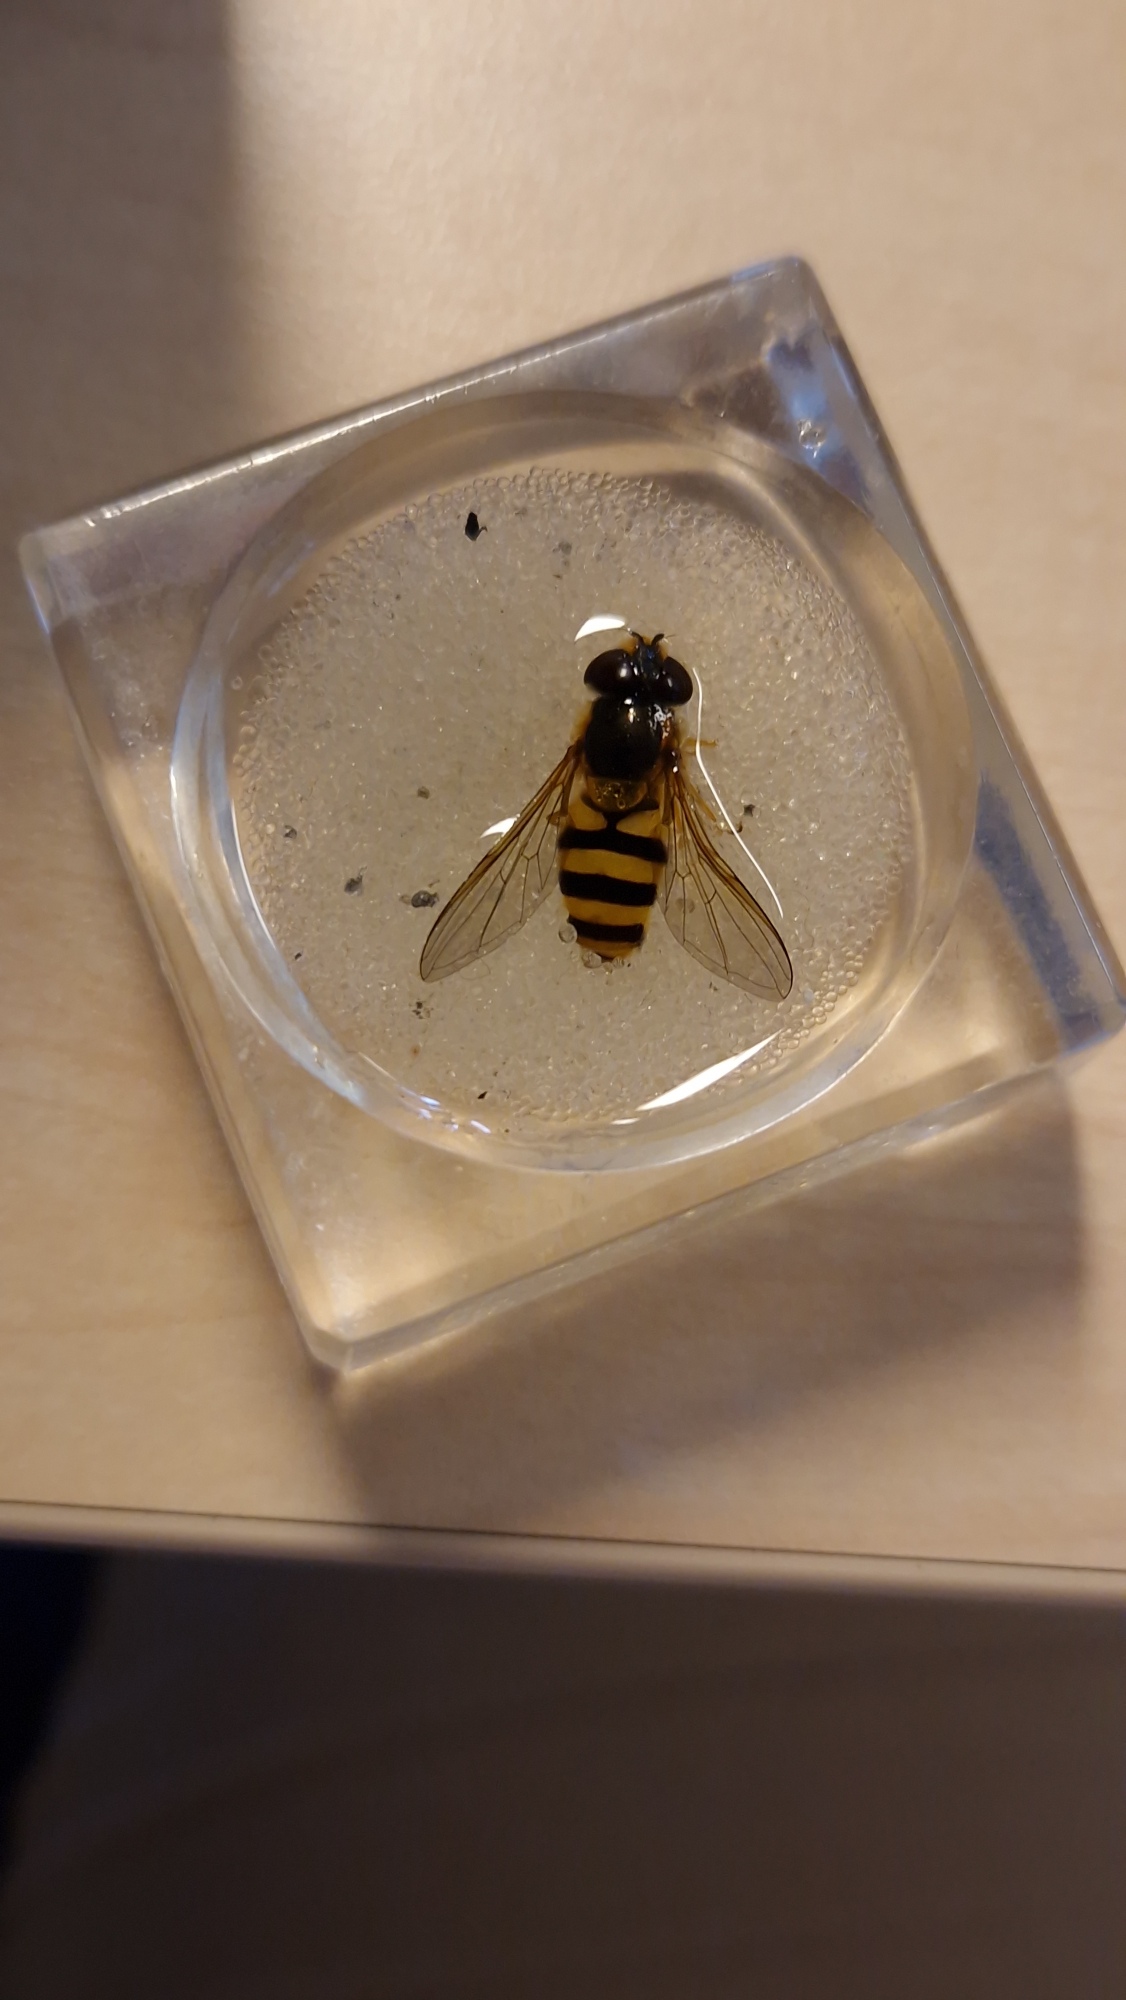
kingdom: Animalia
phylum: Arthropoda
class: Insecta
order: Diptera
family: Syrphidae
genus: Epistrophe
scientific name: Epistrophe grossulariae
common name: Stikkelsbær-glanssvirreflue
